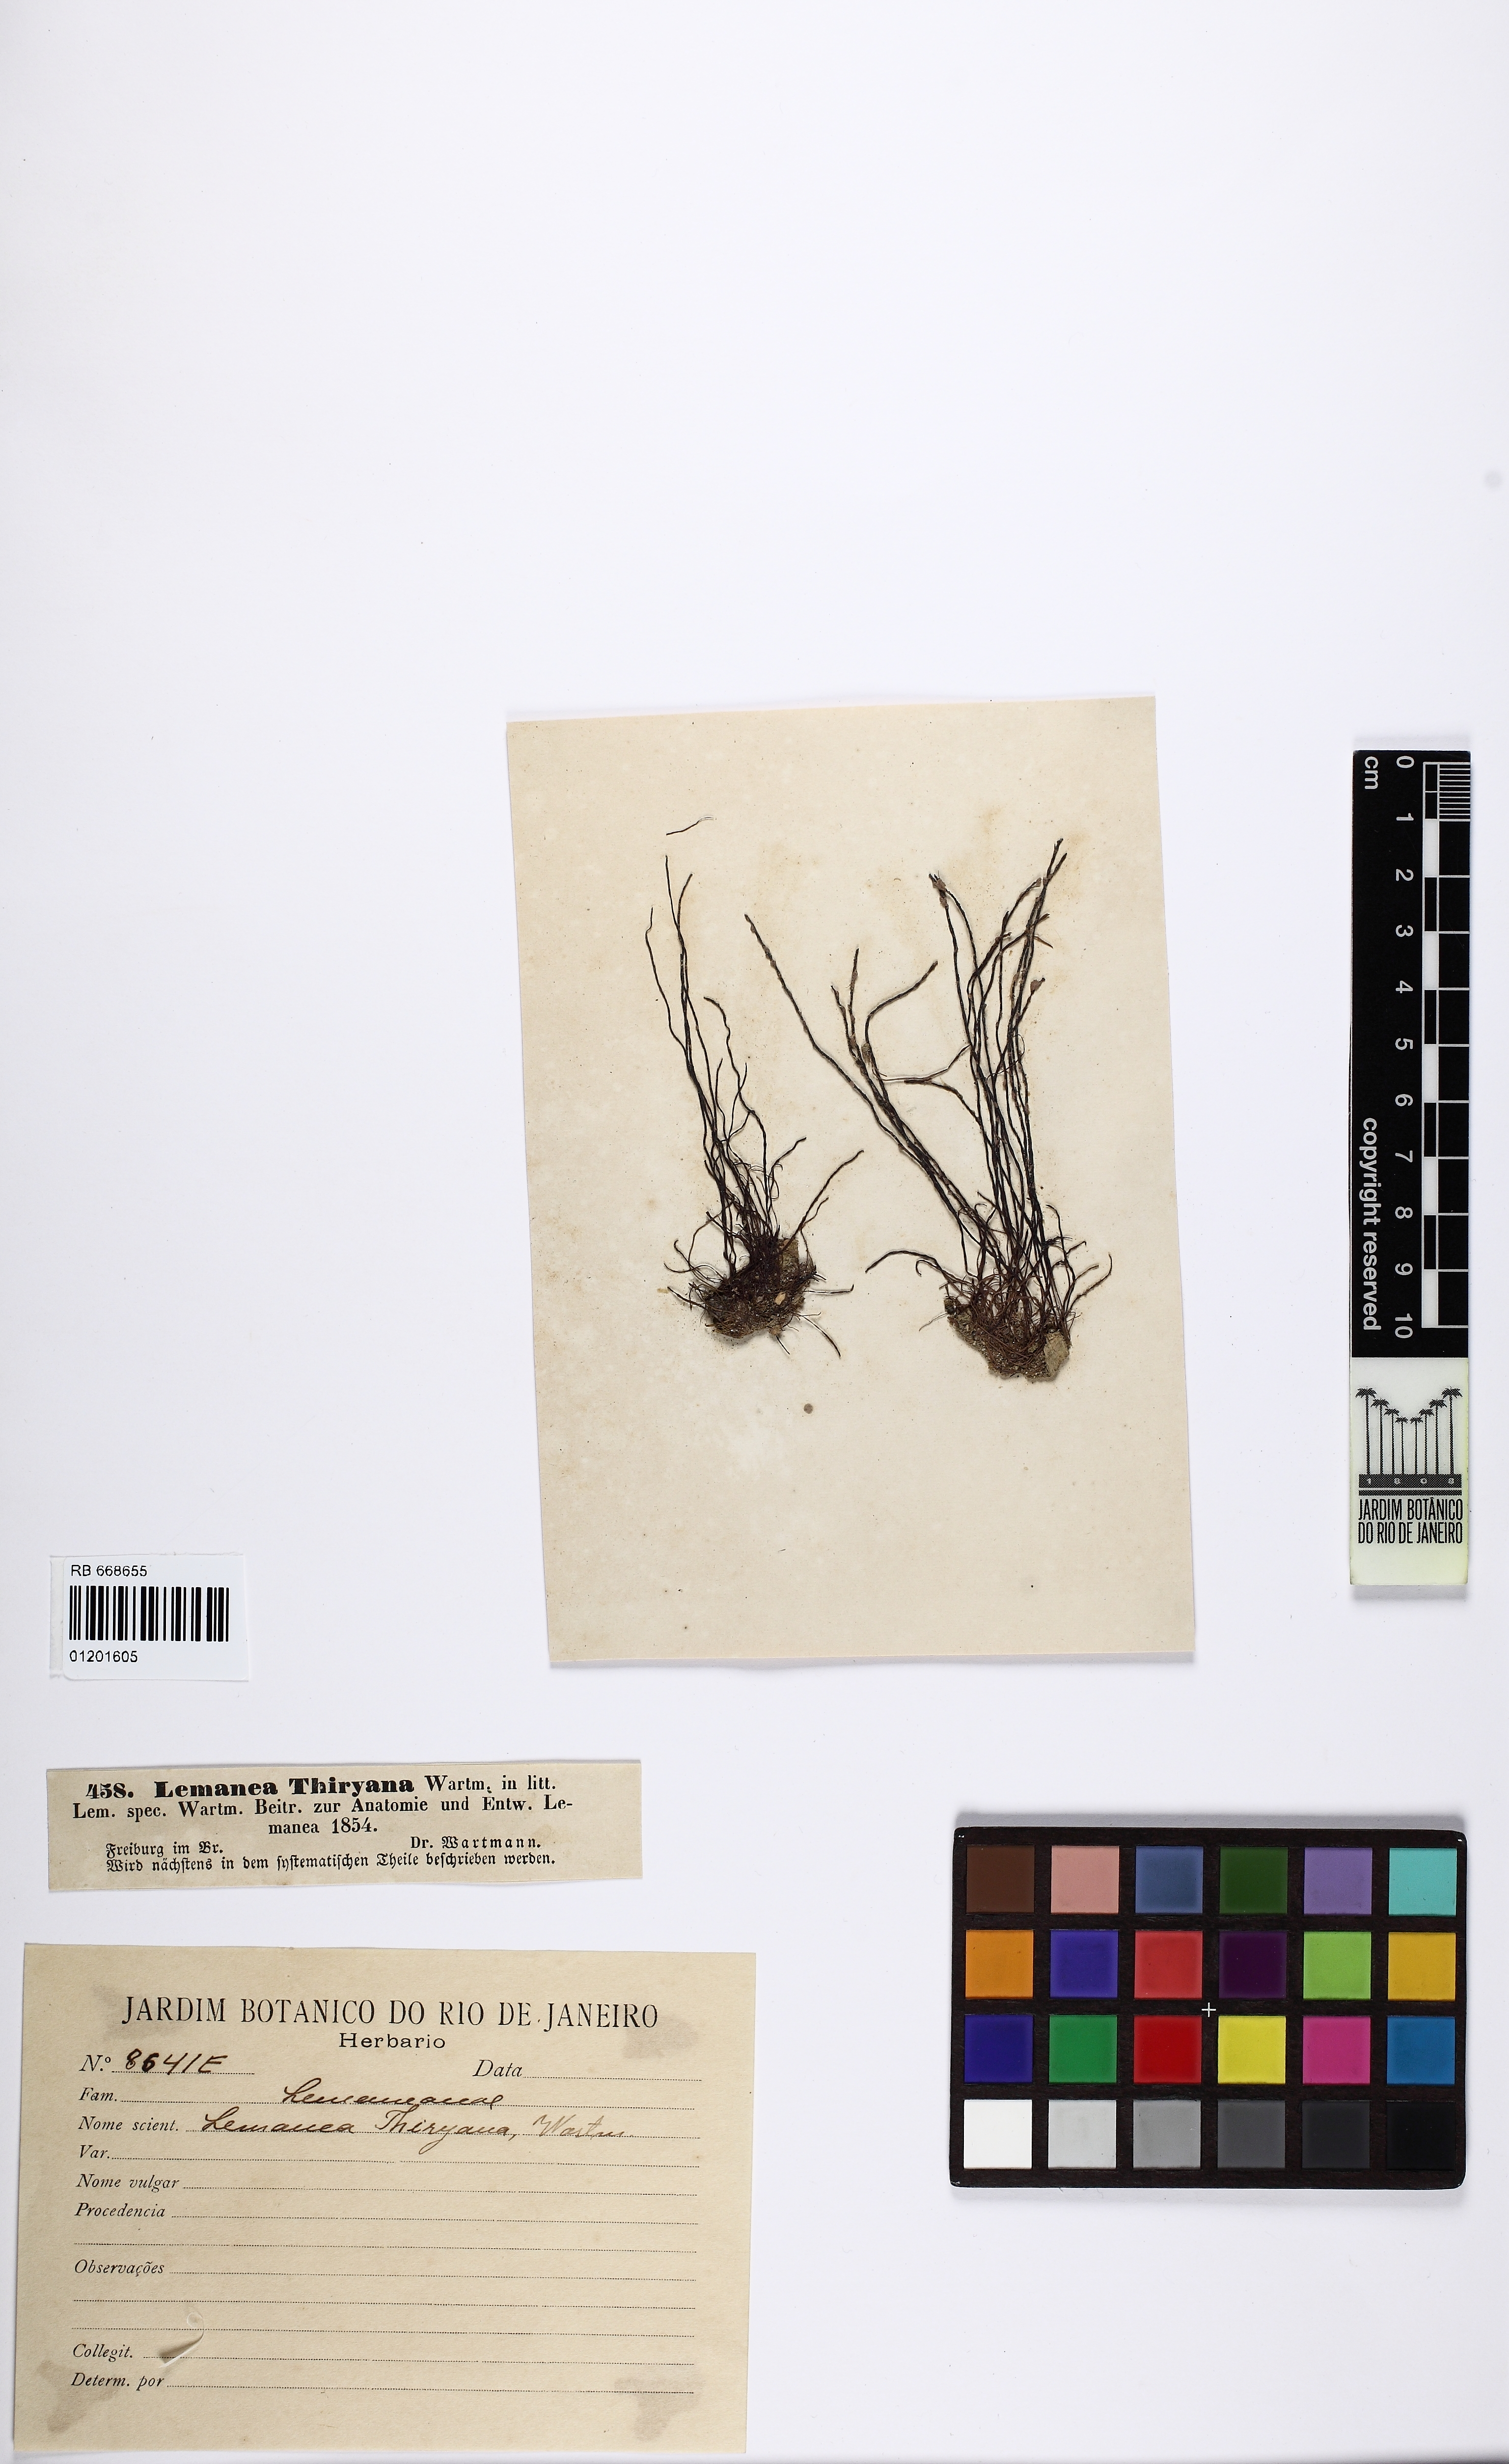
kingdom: Plantae
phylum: Rhodophyta
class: Florideophyceae
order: Batrachospermales
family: Lemaneaceae
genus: Lemanea
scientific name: Lemanea
